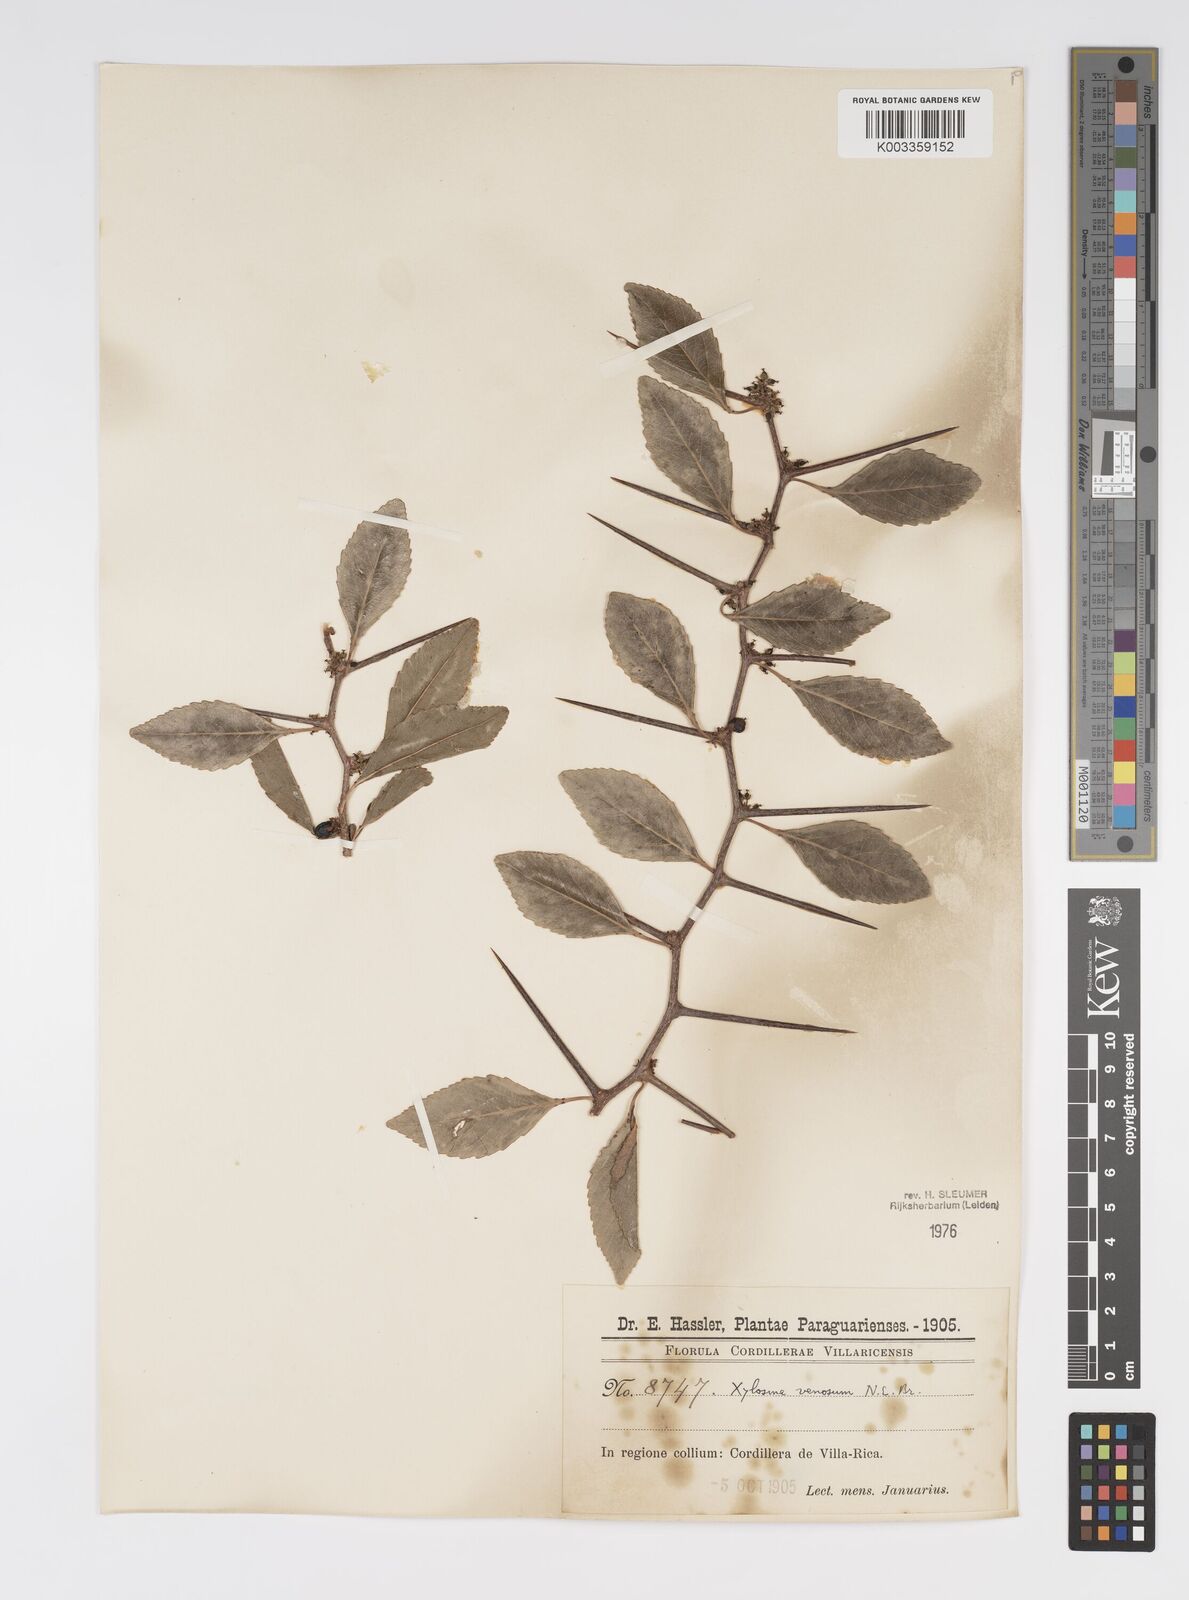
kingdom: Plantae
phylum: Tracheophyta
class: Magnoliopsida
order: Malpighiales
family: Salicaceae
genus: Xylosma
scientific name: Xylosma venosa
